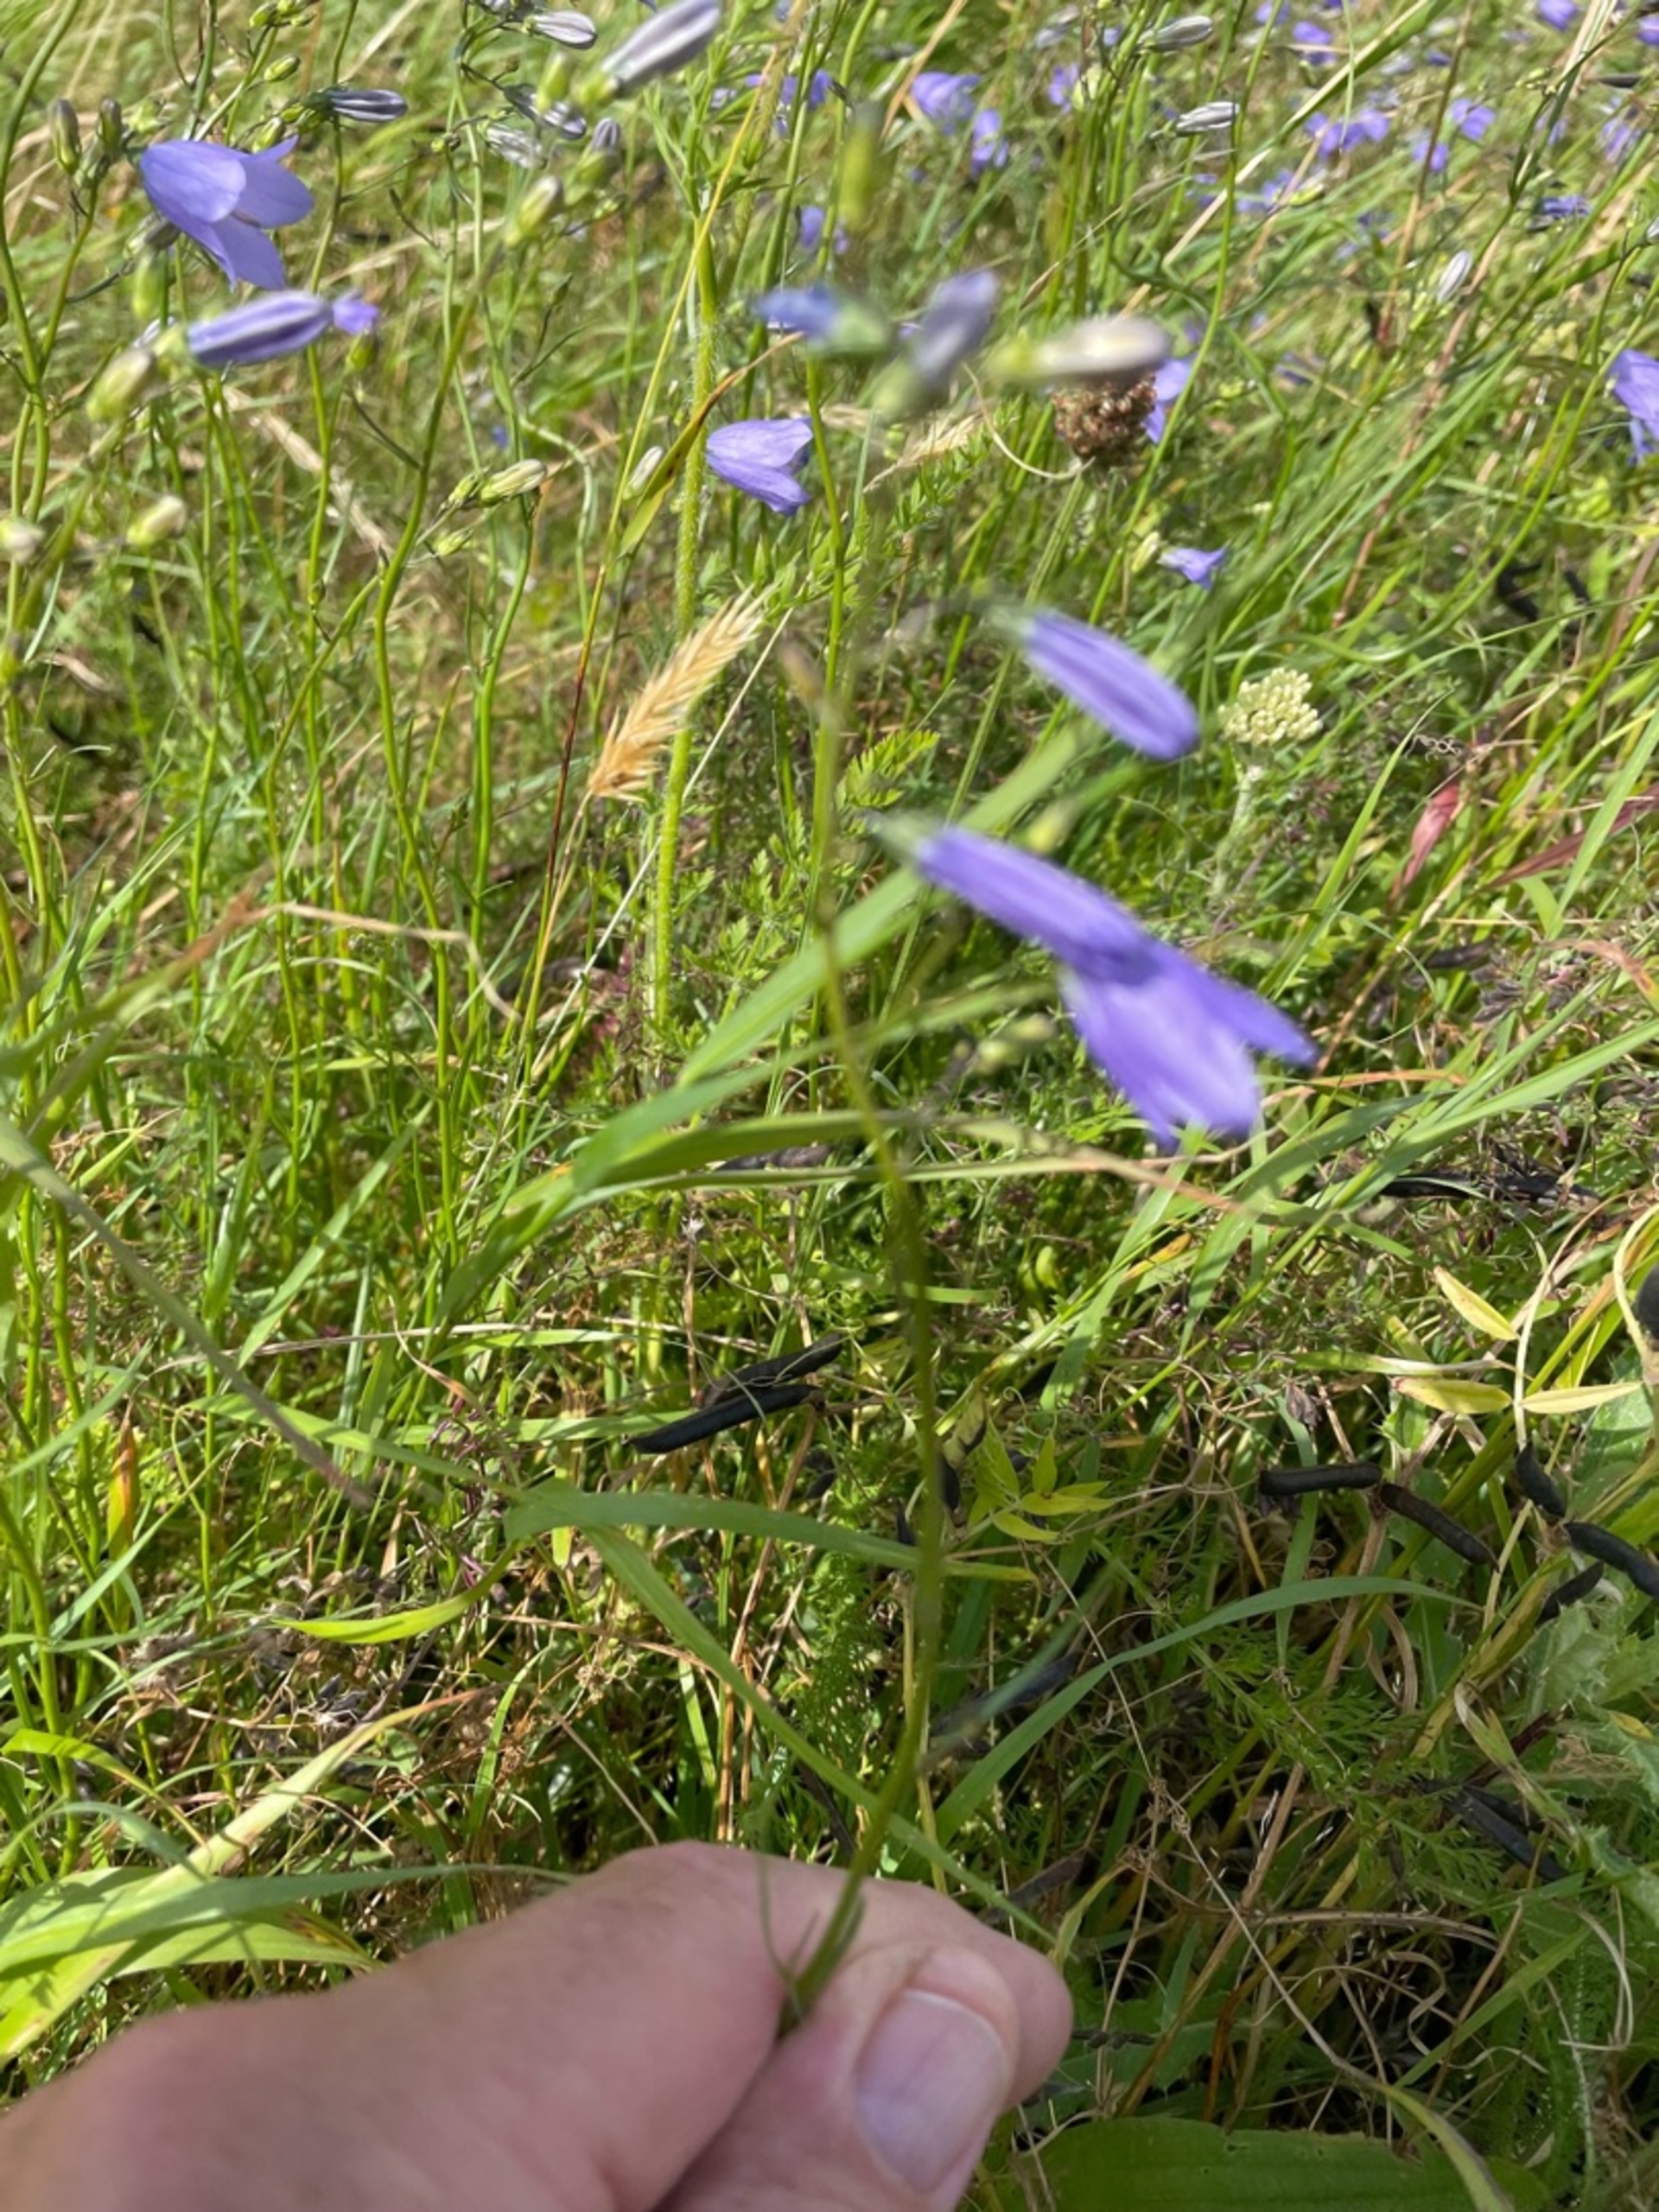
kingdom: Plantae
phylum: Tracheophyta
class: Magnoliopsida
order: Asterales
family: Campanulaceae
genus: Campanula
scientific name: Campanula rotundifolia
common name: Liden klokke
